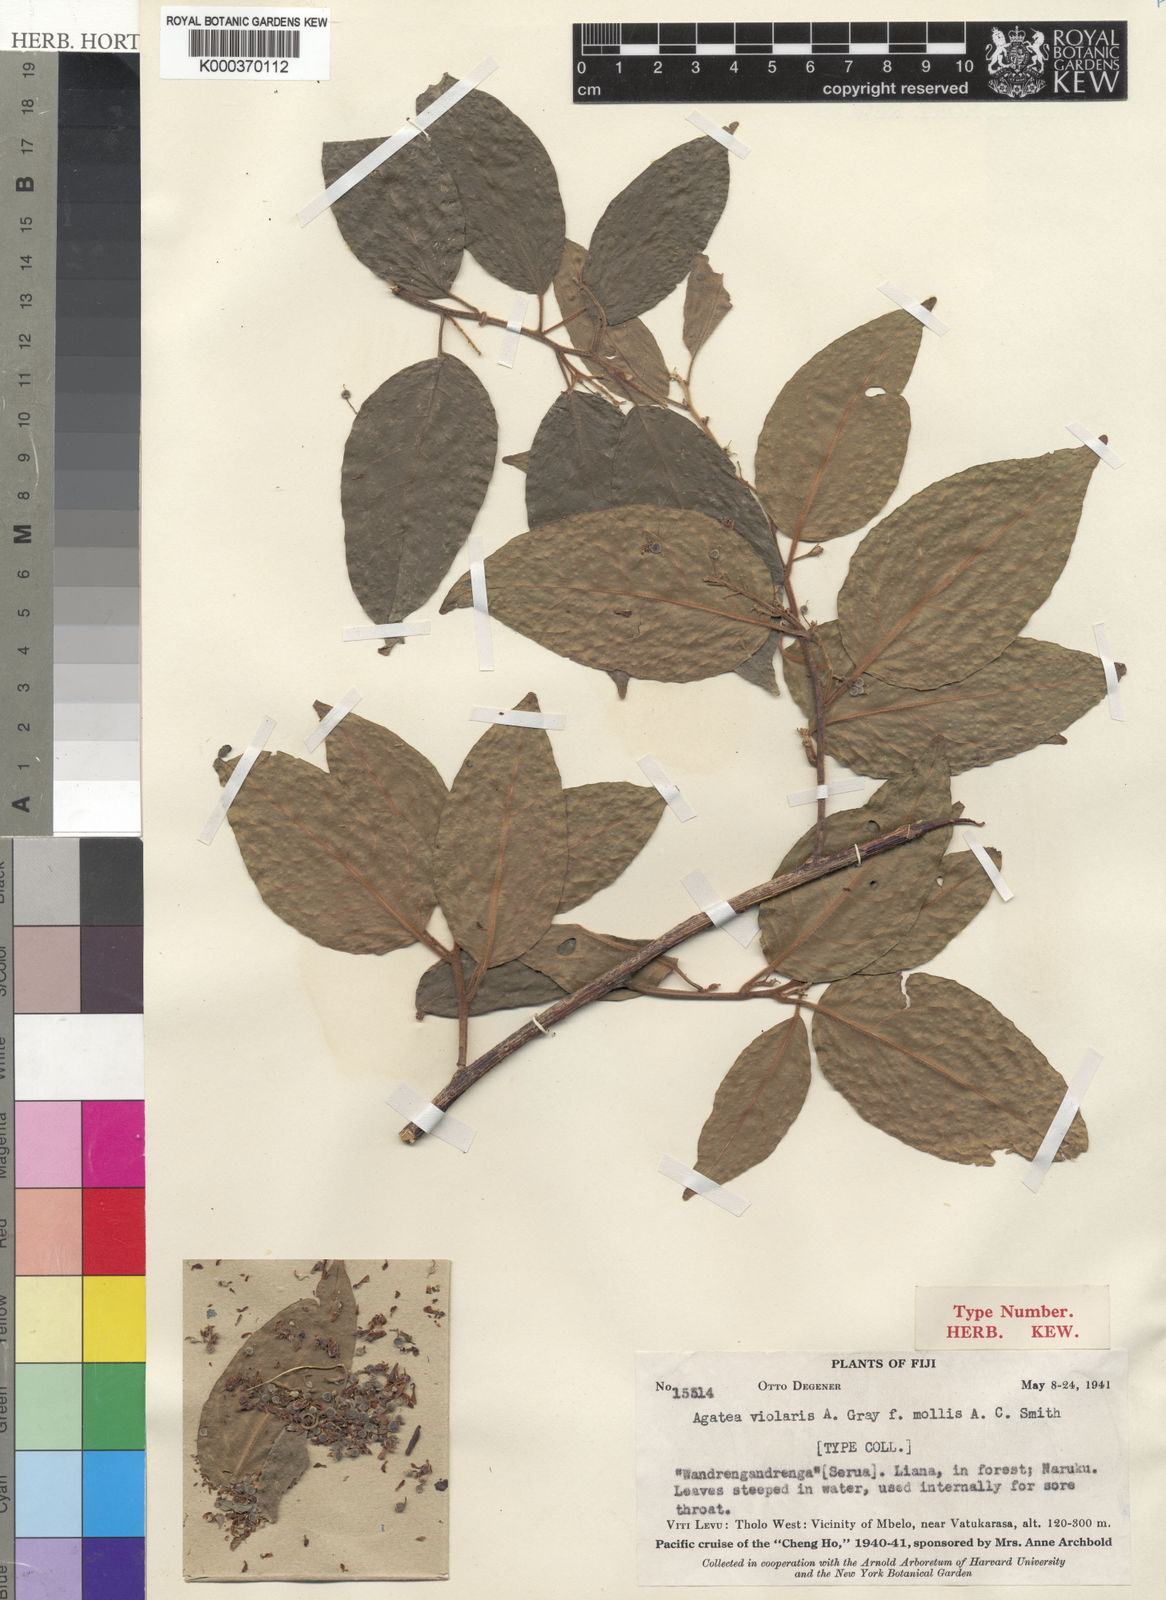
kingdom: Plantae
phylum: Tracheophyta
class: Magnoliopsida
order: Malpighiales
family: Violaceae
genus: Agatea
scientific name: Agatea violaris
